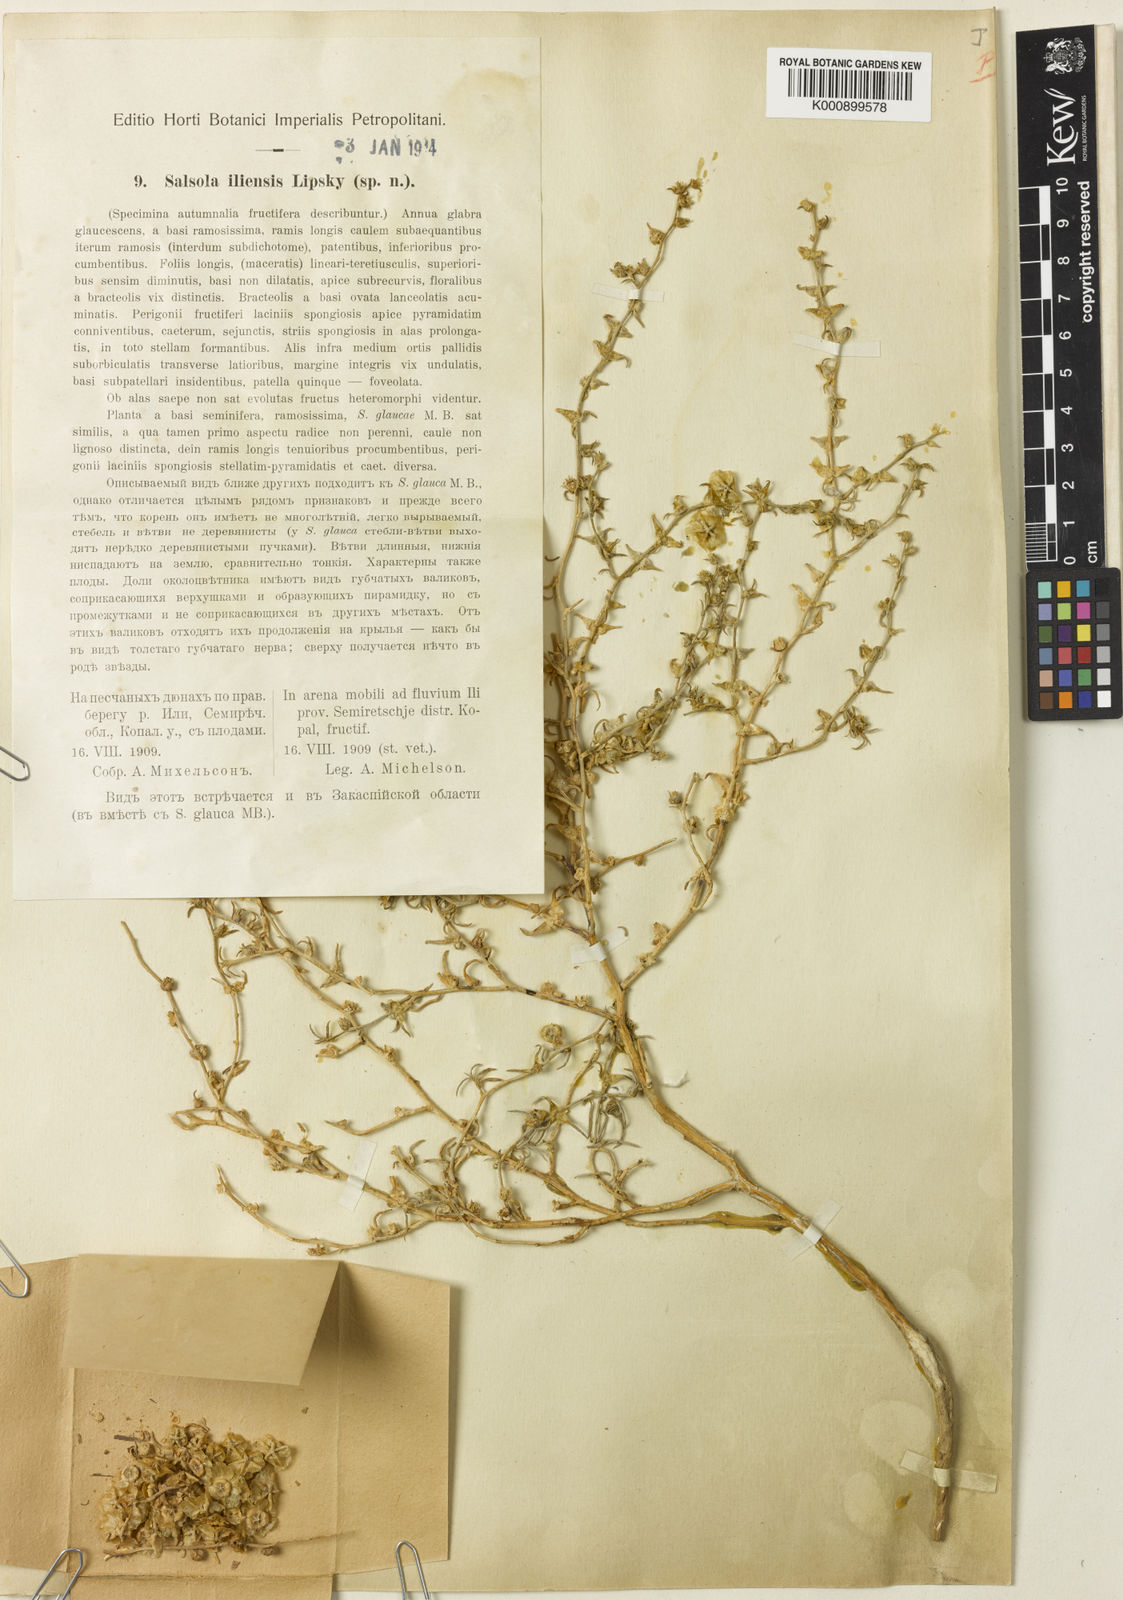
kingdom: Plantae
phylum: Tracheophyta
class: Magnoliopsida
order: Caryophyllales
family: Amaranthaceae
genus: Halothamnus
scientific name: Halothamnus iliensis
